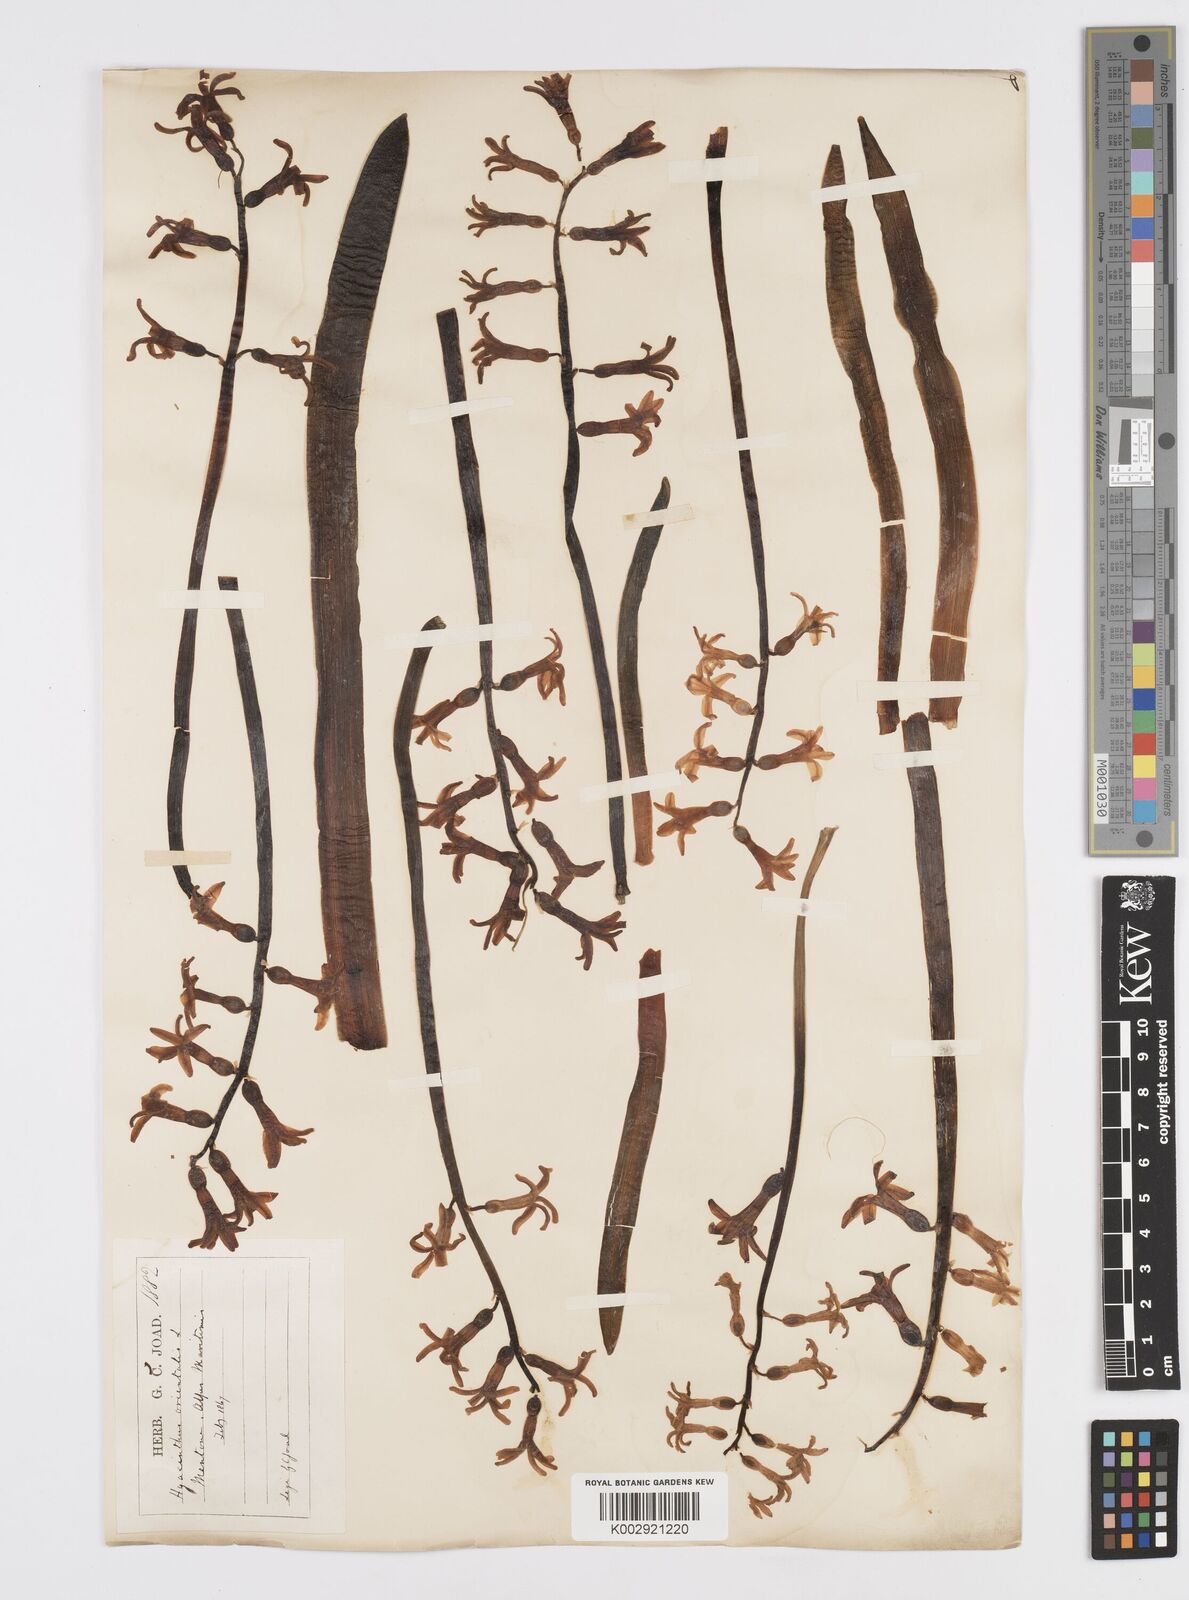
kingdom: Plantae
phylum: Tracheophyta
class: Liliopsida
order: Asparagales
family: Asparagaceae
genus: Hyacinthus
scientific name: Hyacinthus orientalis
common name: Hyacinth
